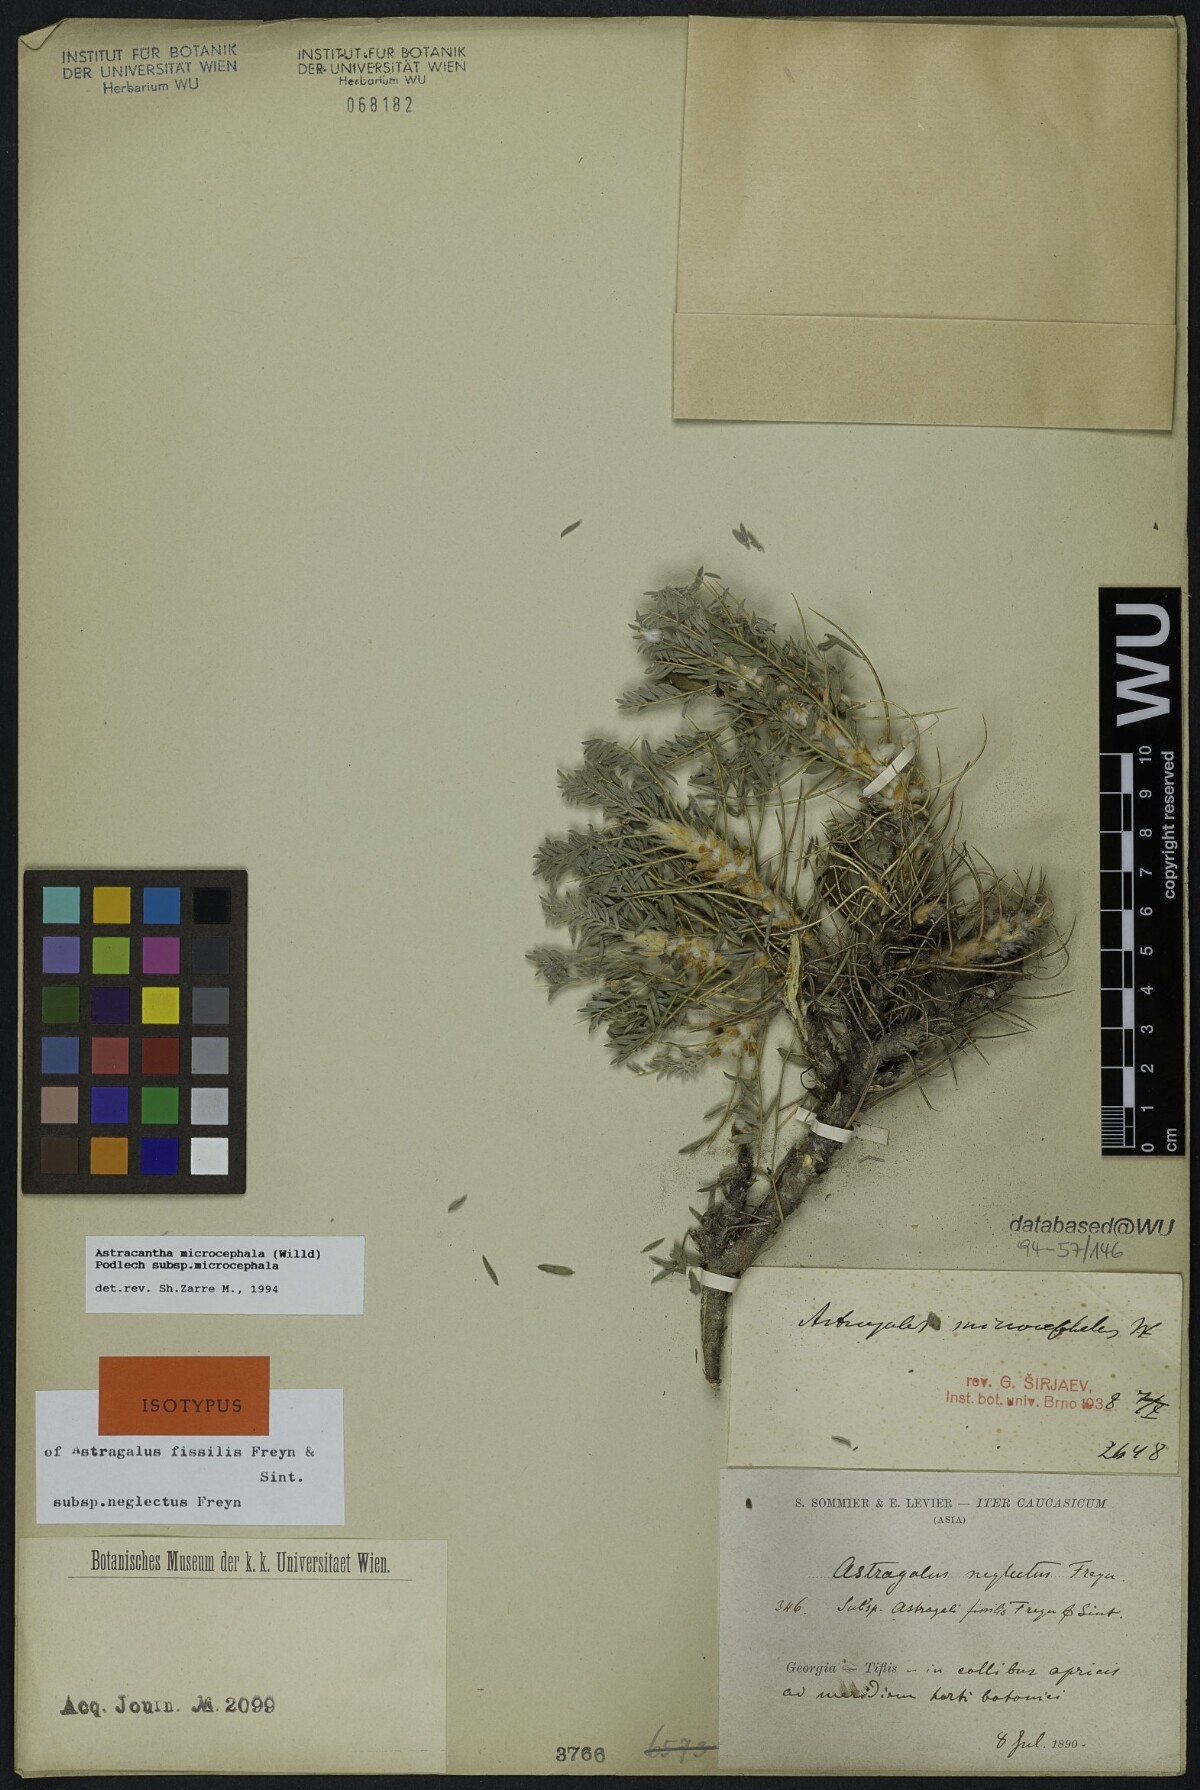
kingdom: Plantae
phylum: Tracheophyta
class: Magnoliopsida
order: Fabales
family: Fabaceae
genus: Astragalus
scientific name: Astragalus microcephalus
